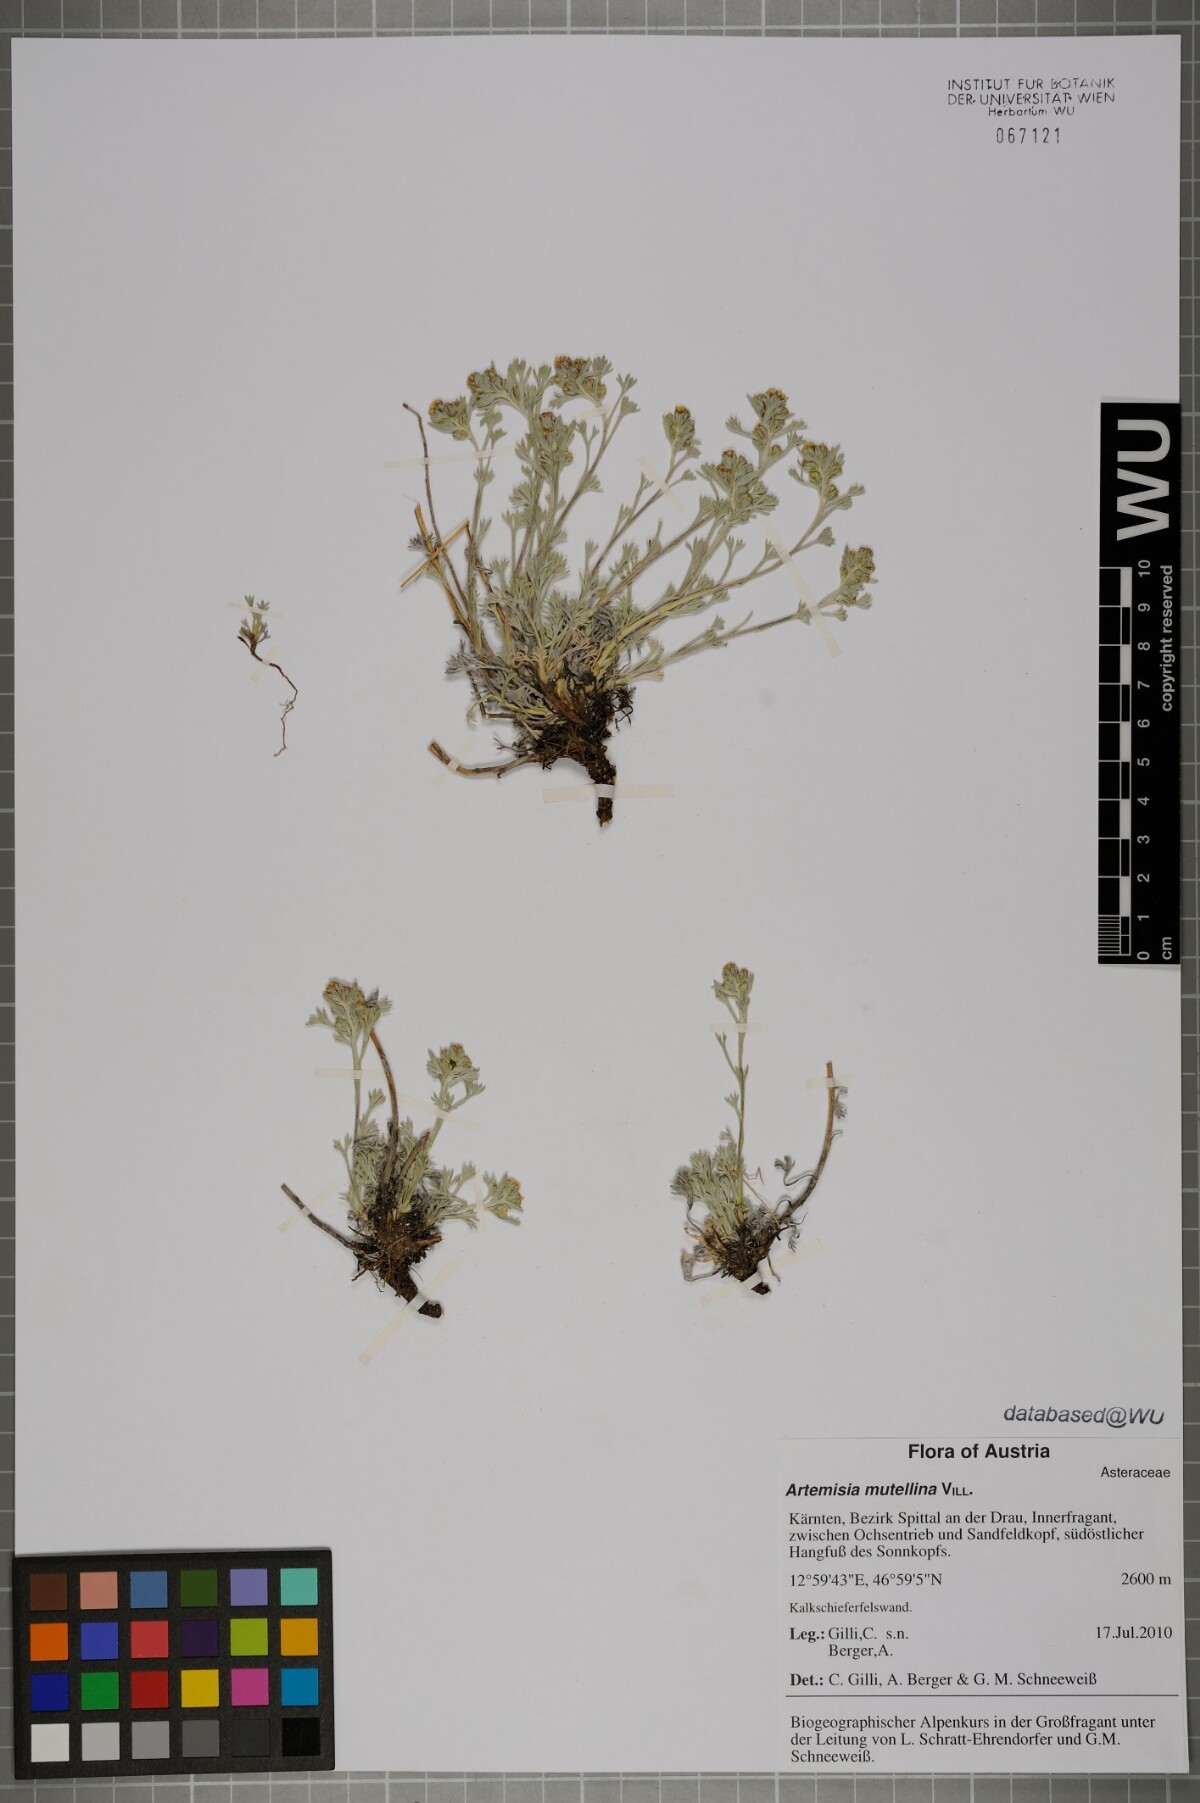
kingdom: Plantae
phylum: Tracheophyta
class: Magnoliopsida
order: Asterales
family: Asteraceae
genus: Artemisia
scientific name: Artemisia mutellina
